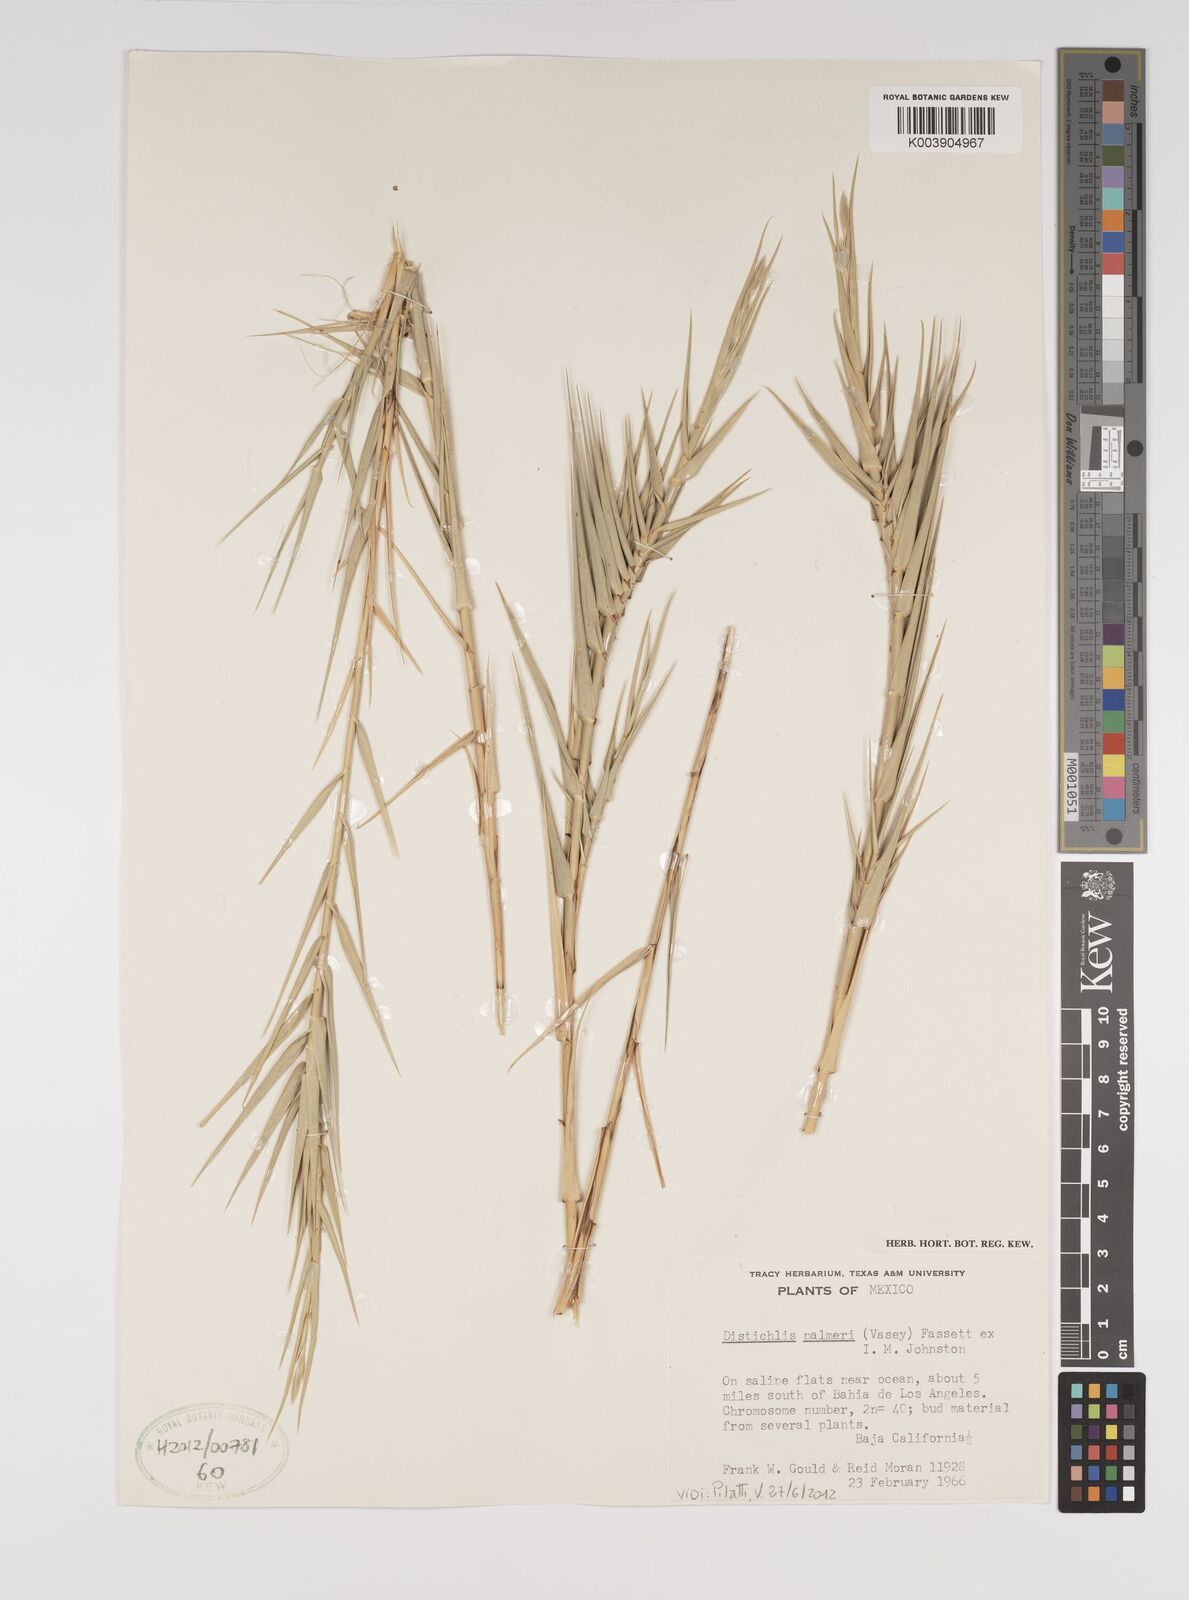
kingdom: Plantae
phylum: Tracheophyta
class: Liliopsida
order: Poales
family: Poaceae
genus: Distichlis
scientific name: Distichlis palmeri
